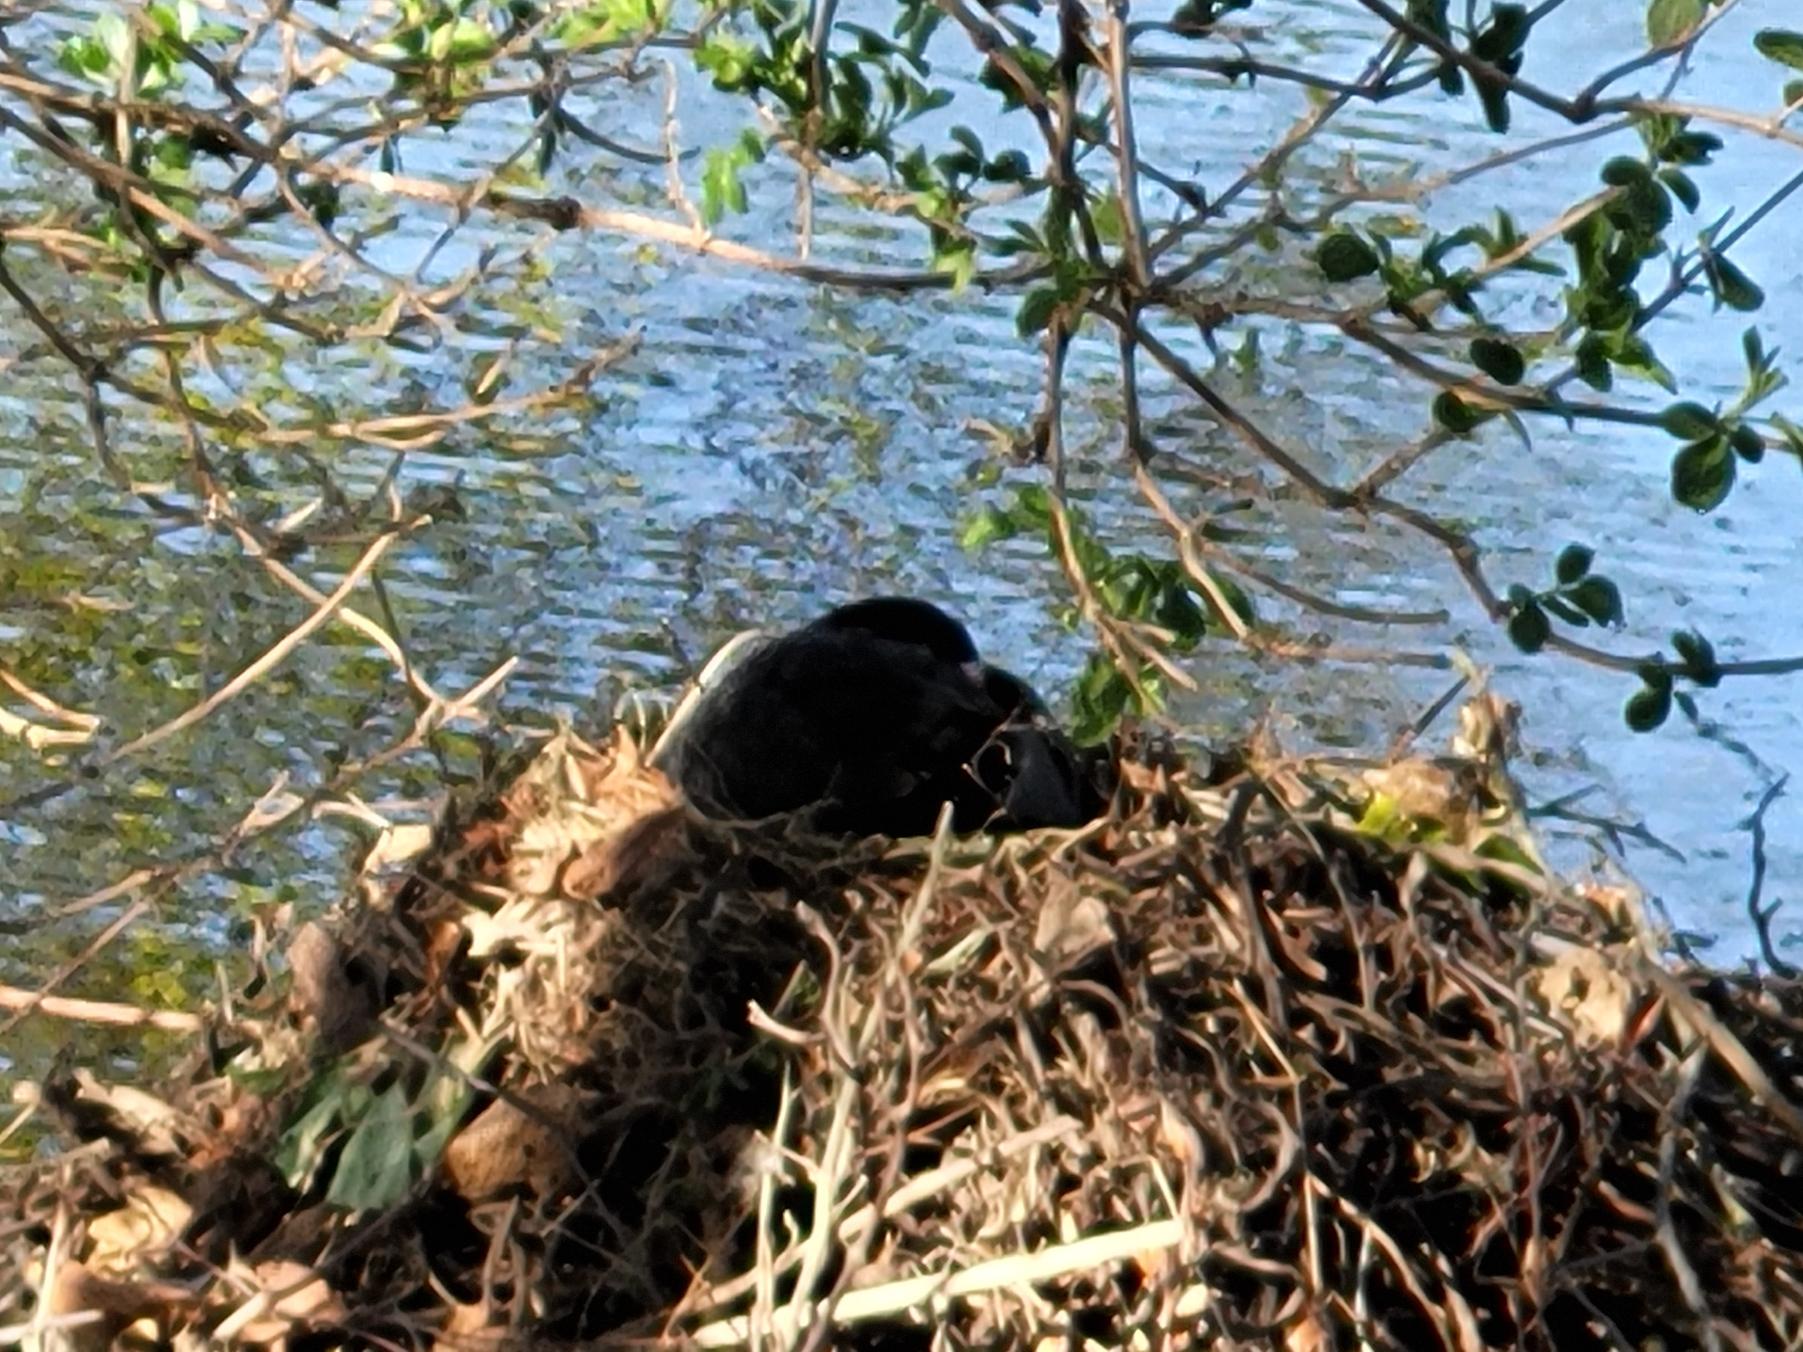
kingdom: Animalia
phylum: Chordata
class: Aves
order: Gruiformes
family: Rallidae
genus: Fulica
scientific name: Fulica atra
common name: Blishøne
